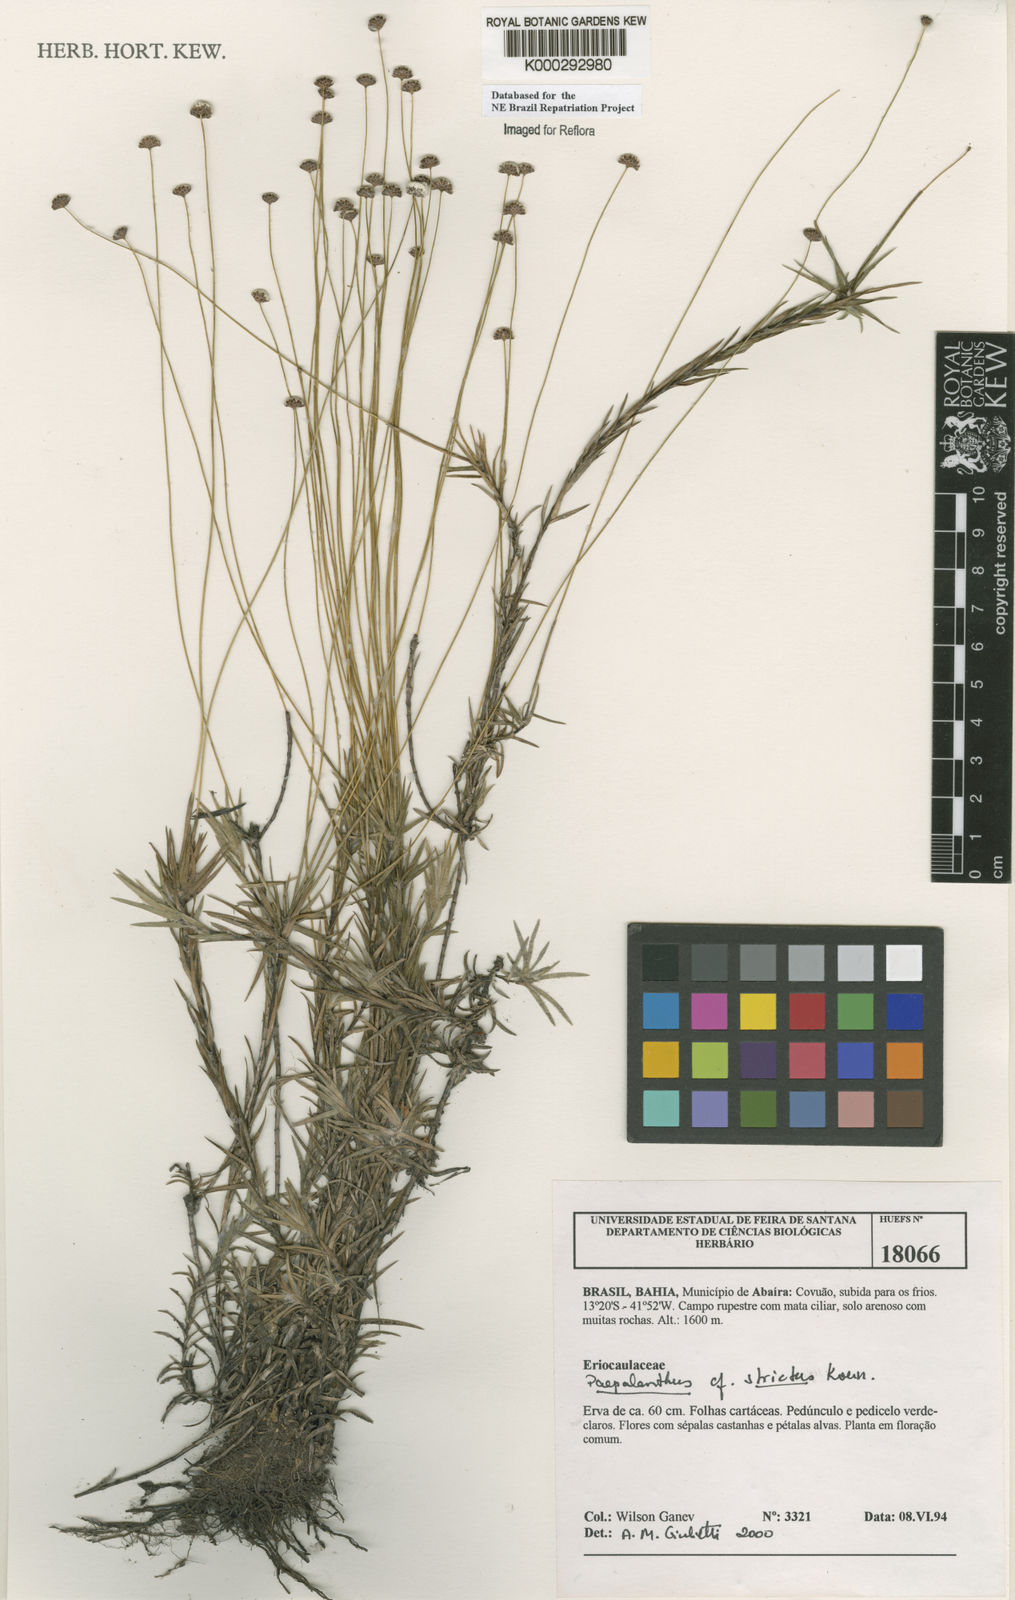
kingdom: Plantae
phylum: Tracheophyta
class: Liliopsida
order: Poales
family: Eriocaulaceae
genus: Paepalanthus
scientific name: Paepalanthus
